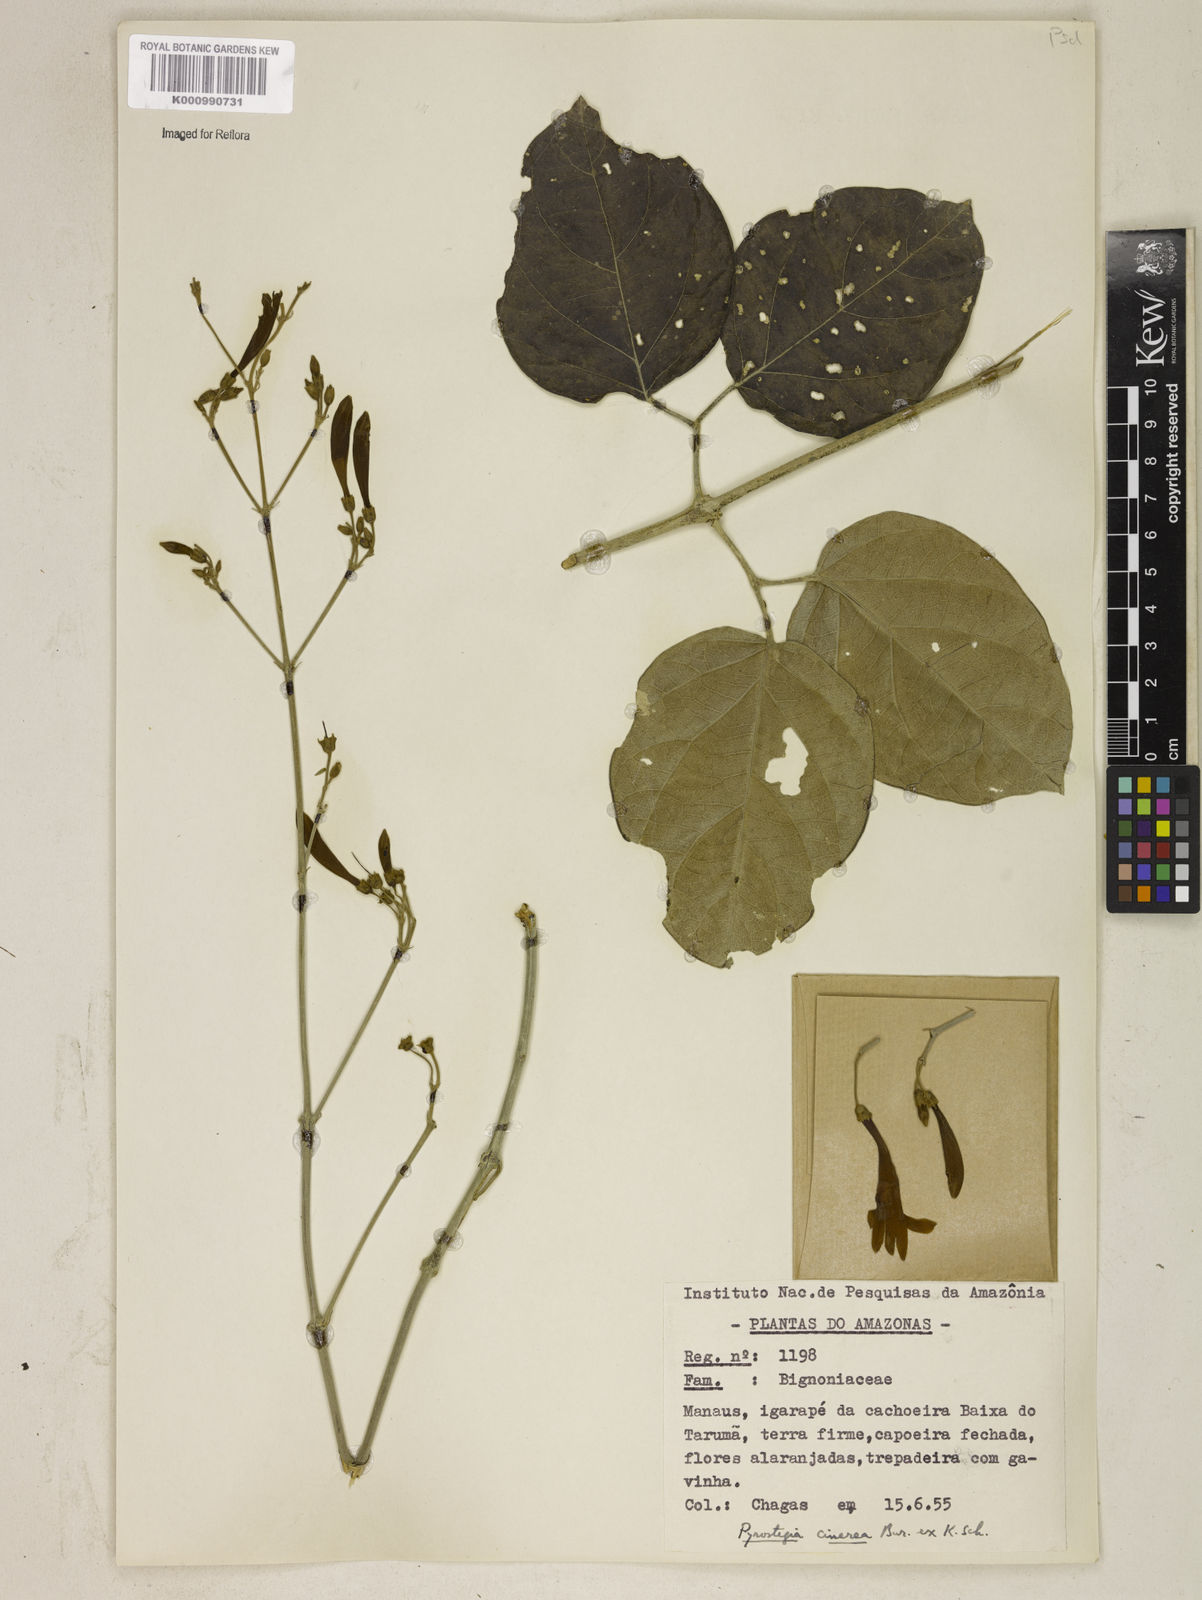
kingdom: Plantae
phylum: Tracheophyta
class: Magnoliopsida
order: Lamiales
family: Bignoniaceae
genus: Pyrostegia
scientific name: Pyrostegia
